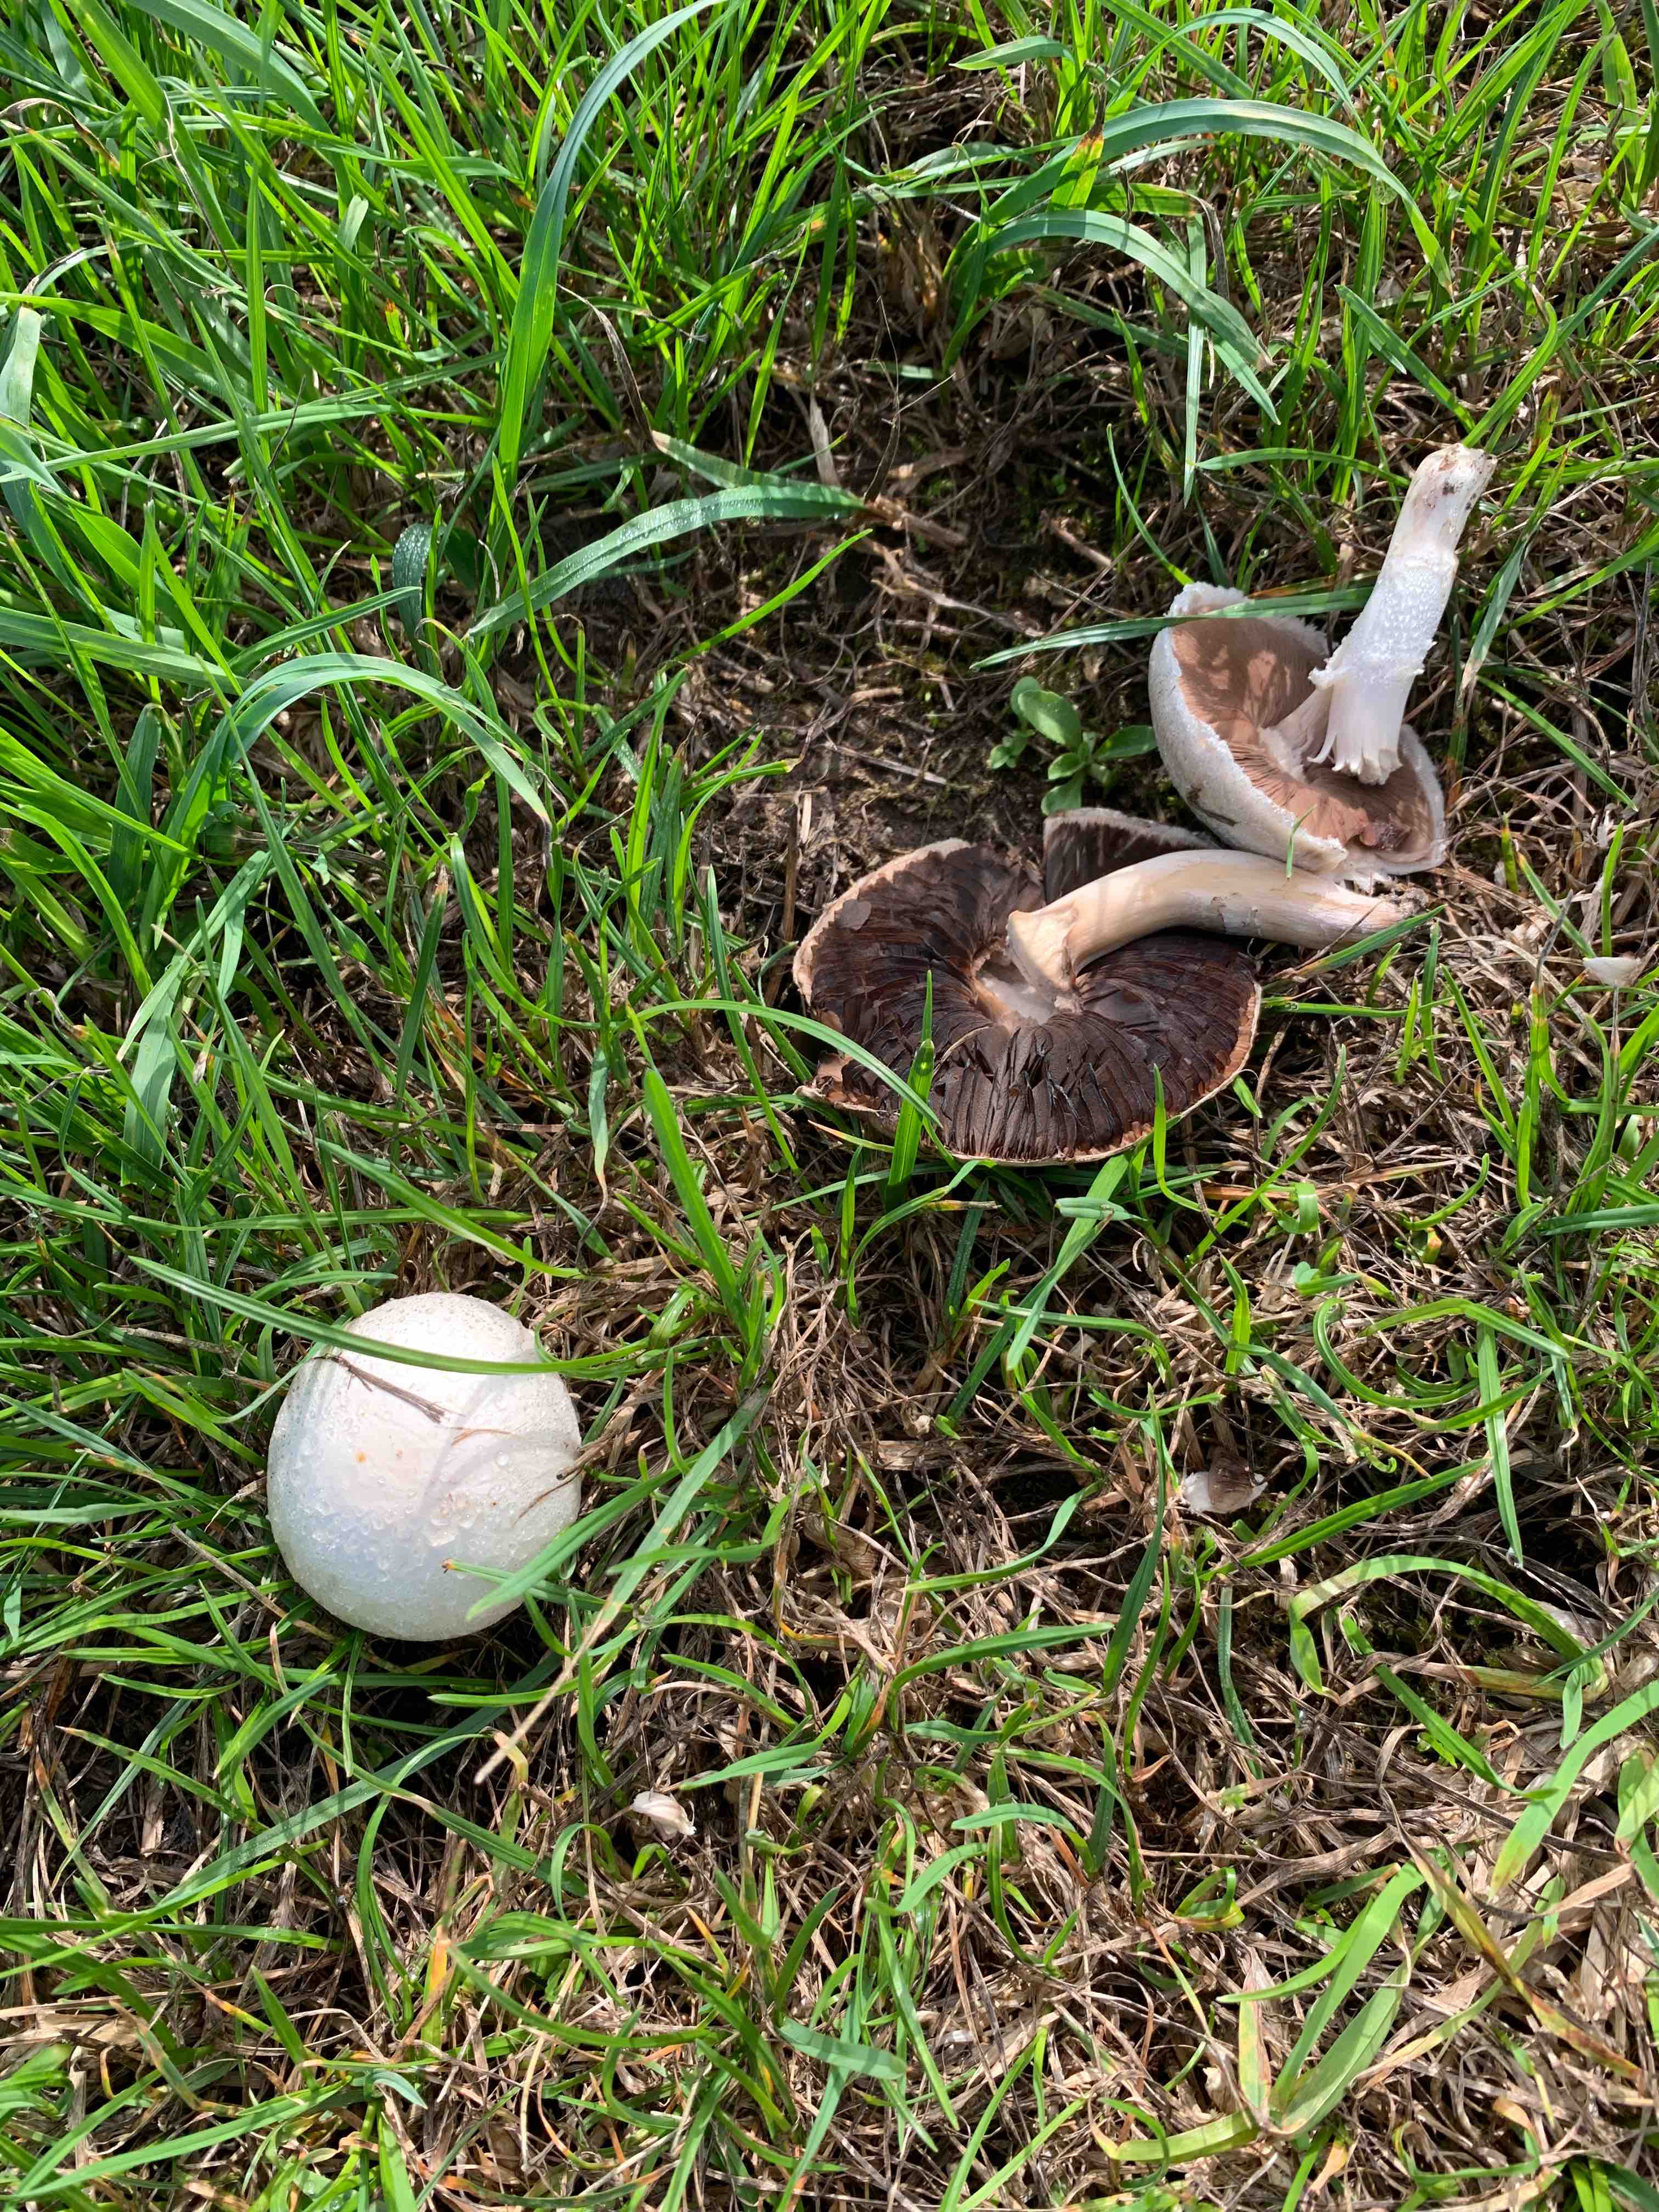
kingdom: Fungi
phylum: Basidiomycota
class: Agaricomycetes
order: Agaricales
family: Agaricaceae
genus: Agaricus
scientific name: Agaricus campestris
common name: mark-champignon
